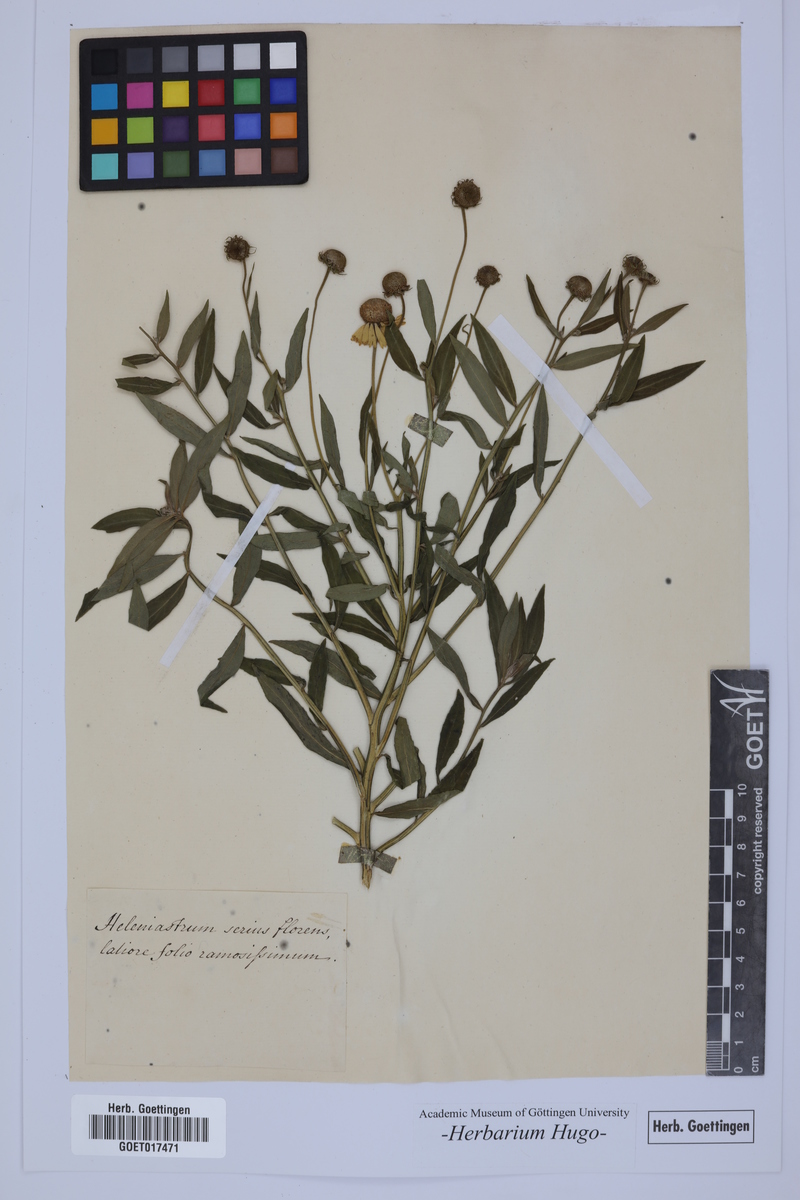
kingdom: Plantae
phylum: Tracheophyta
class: Magnoliopsida
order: Asterales
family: Asteraceae
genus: Heleniastrum
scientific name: Heleniastrum
